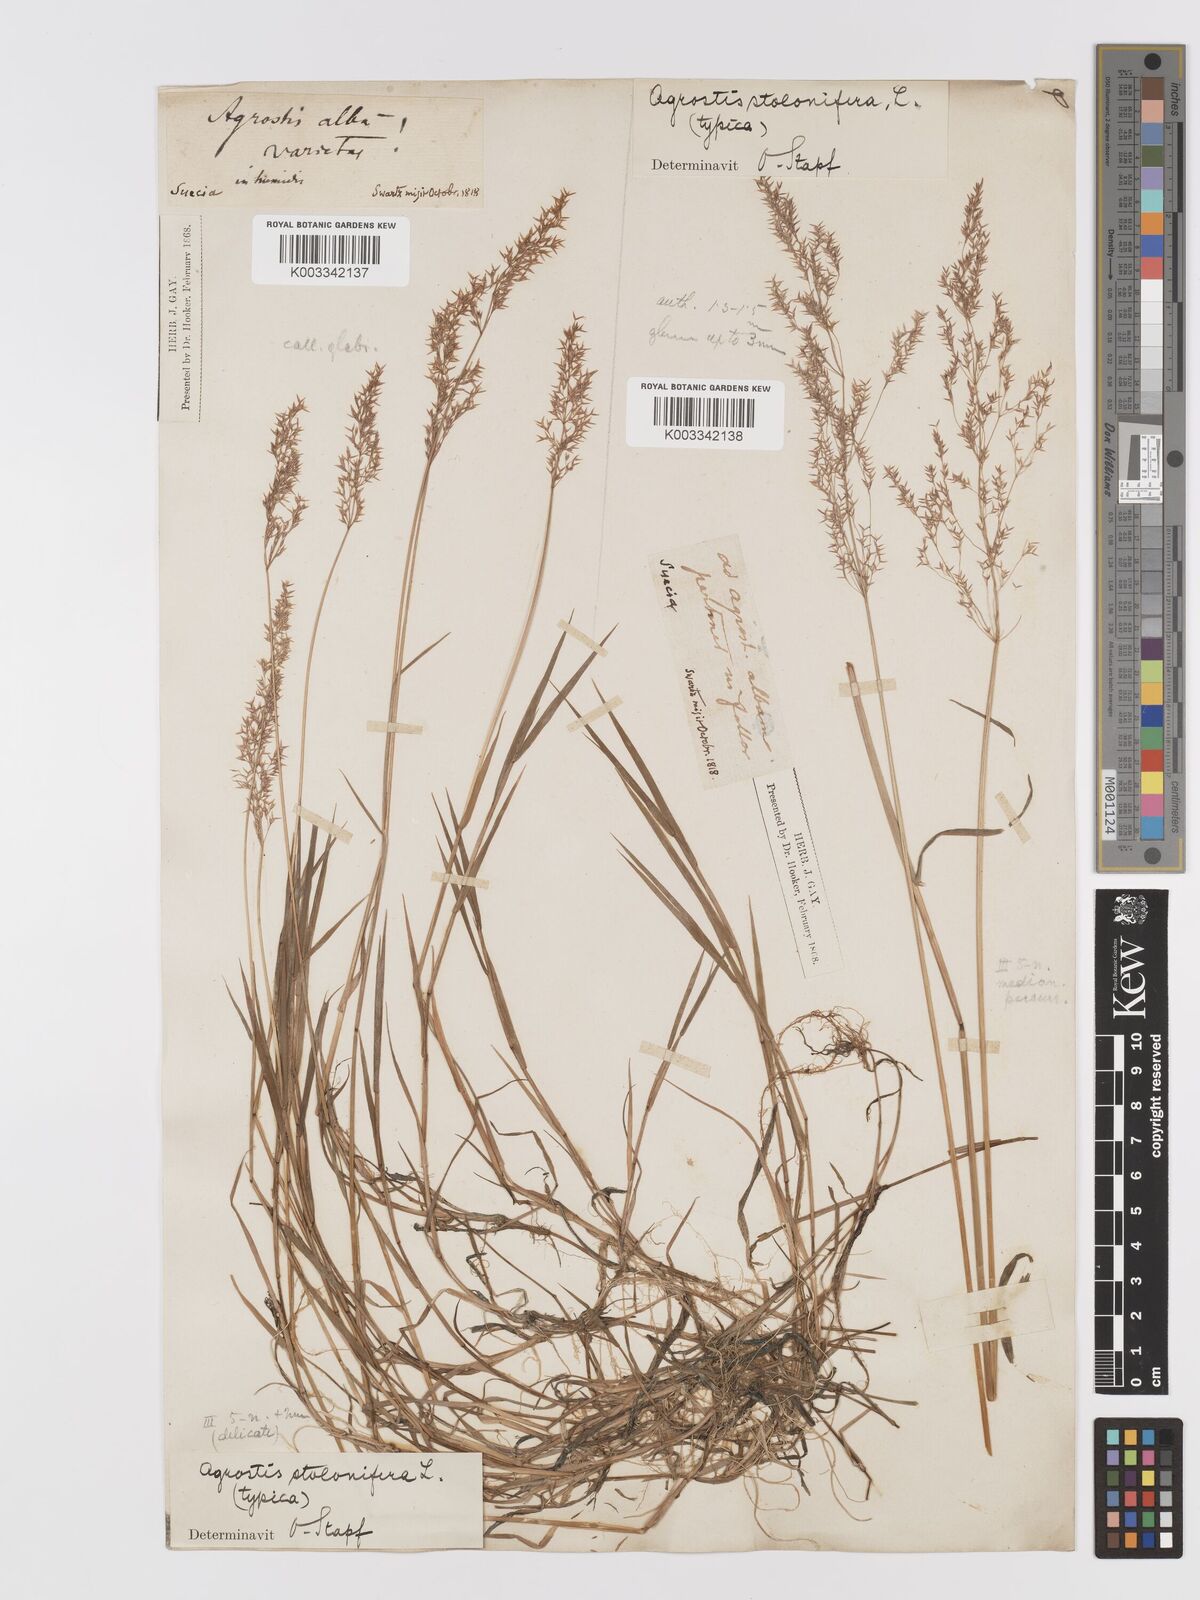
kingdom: Plantae
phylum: Tracheophyta
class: Liliopsida
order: Poales
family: Poaceae
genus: Agrostis
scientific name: Agrostis stolonifera
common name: Creeping bentgrass
